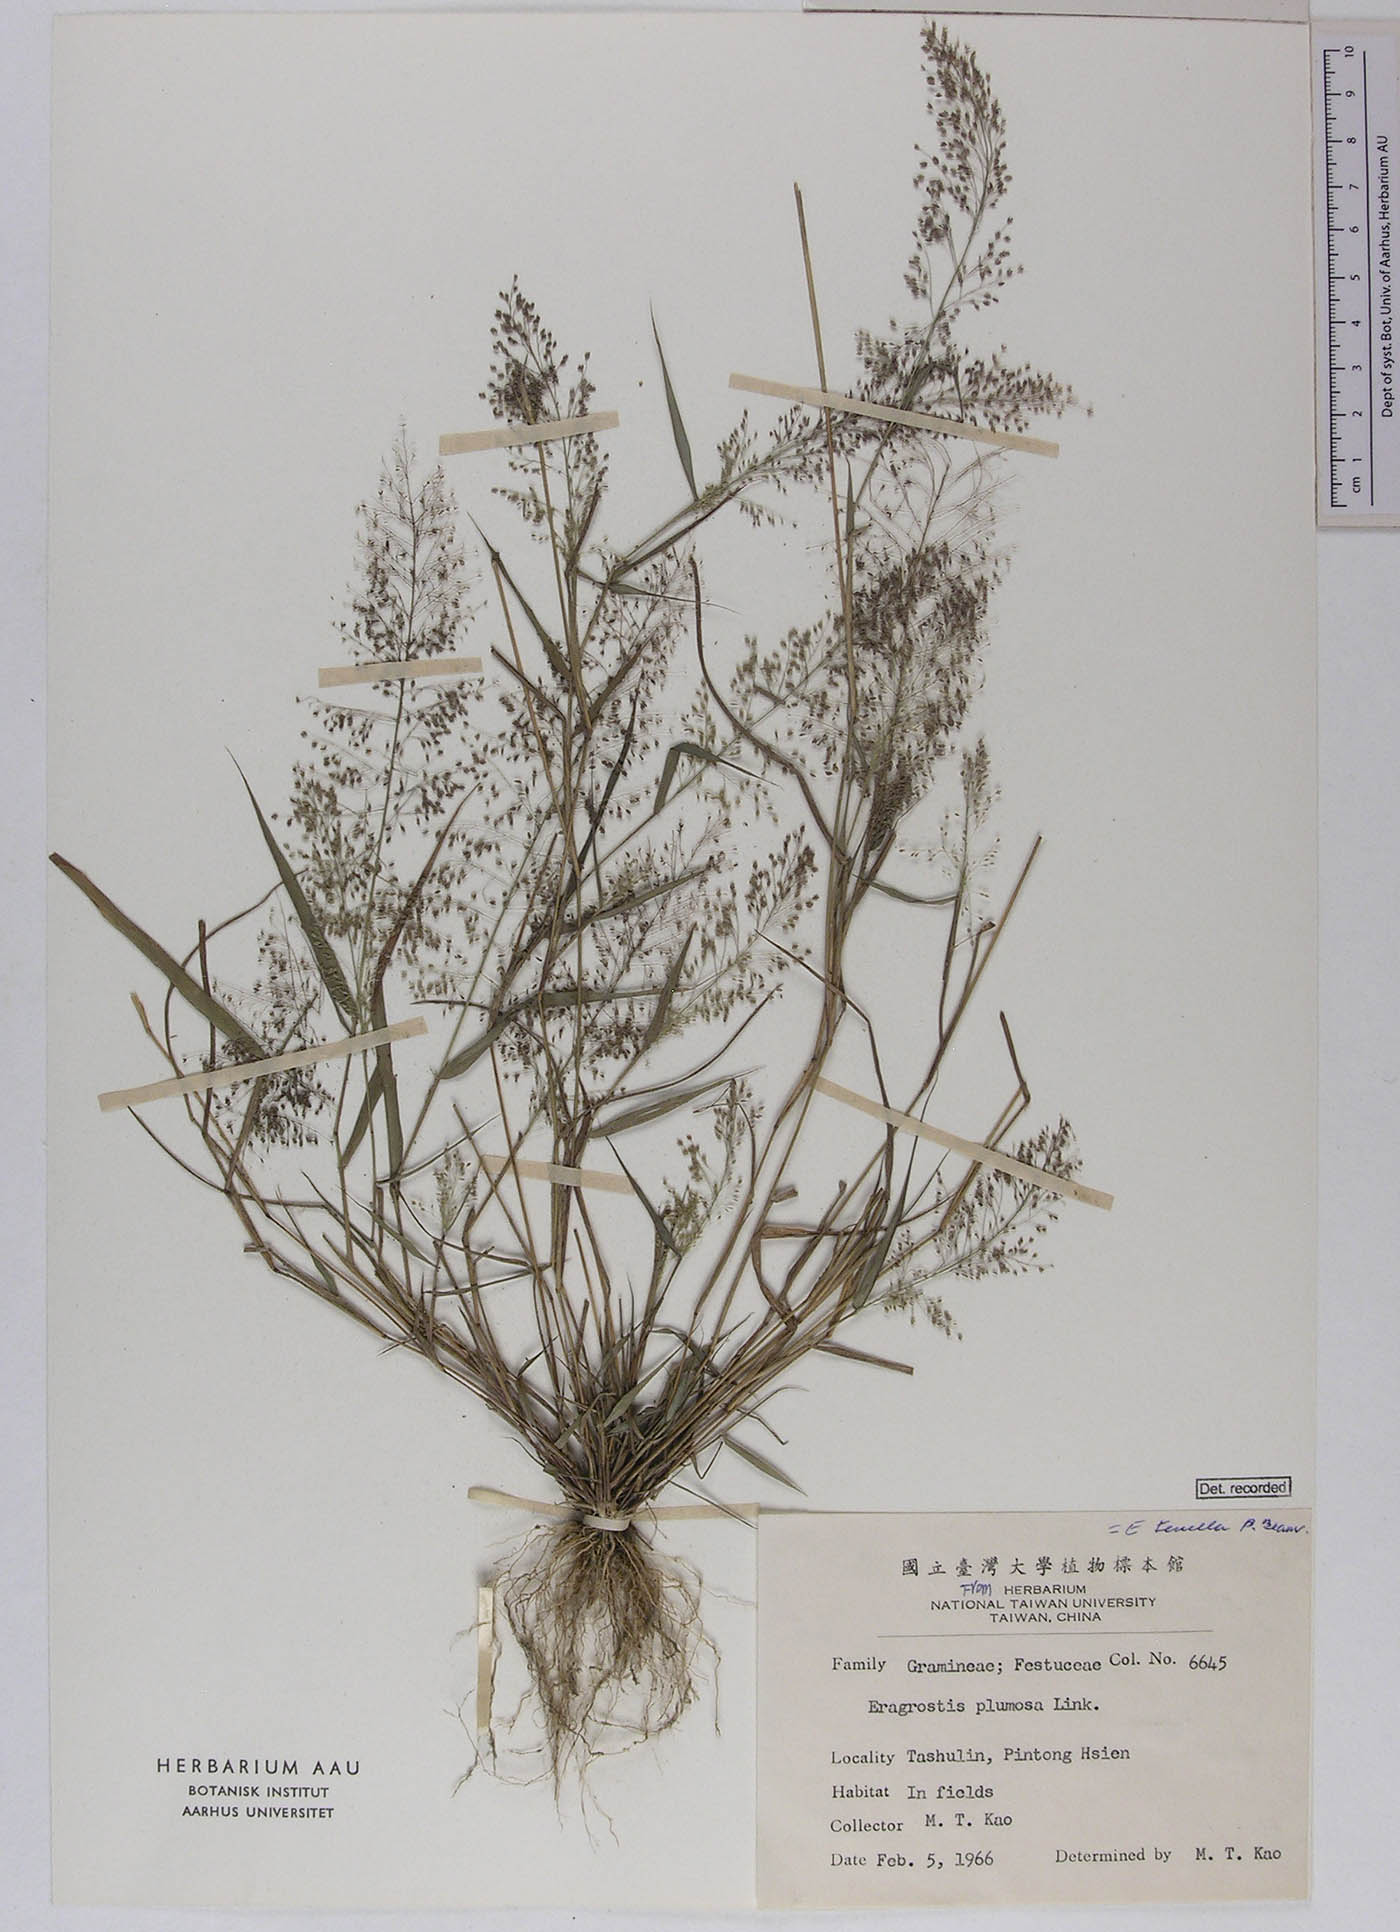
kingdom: Plantae
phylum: Tracheophyta
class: Liliopsida
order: Poales
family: Poaceae
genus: Eragrostis
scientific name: Eragrostis viscosa
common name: Sticky love grass
